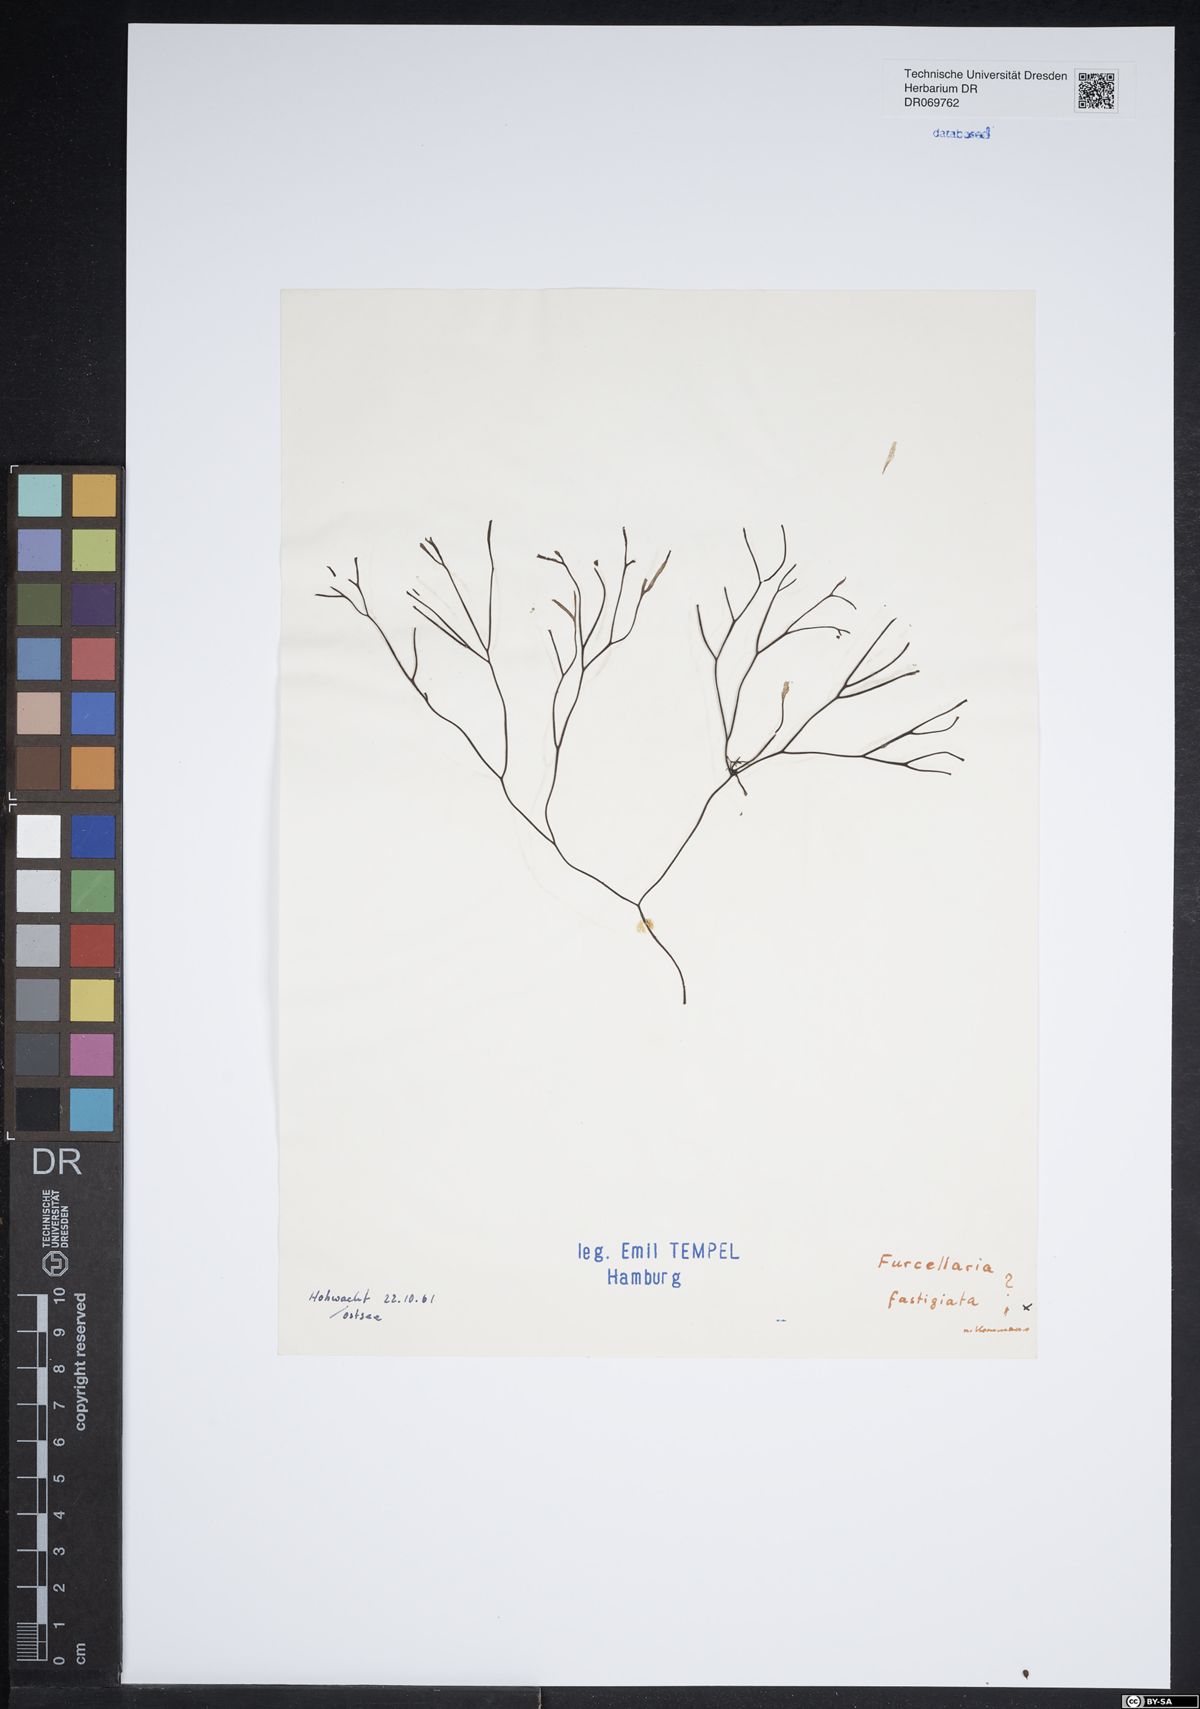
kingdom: Plantae
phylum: Rhodophyta
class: Florideophyceae
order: Gigartinales
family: Furcellariaceae
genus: Furcellaria
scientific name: Furcellaria lumbricalis
